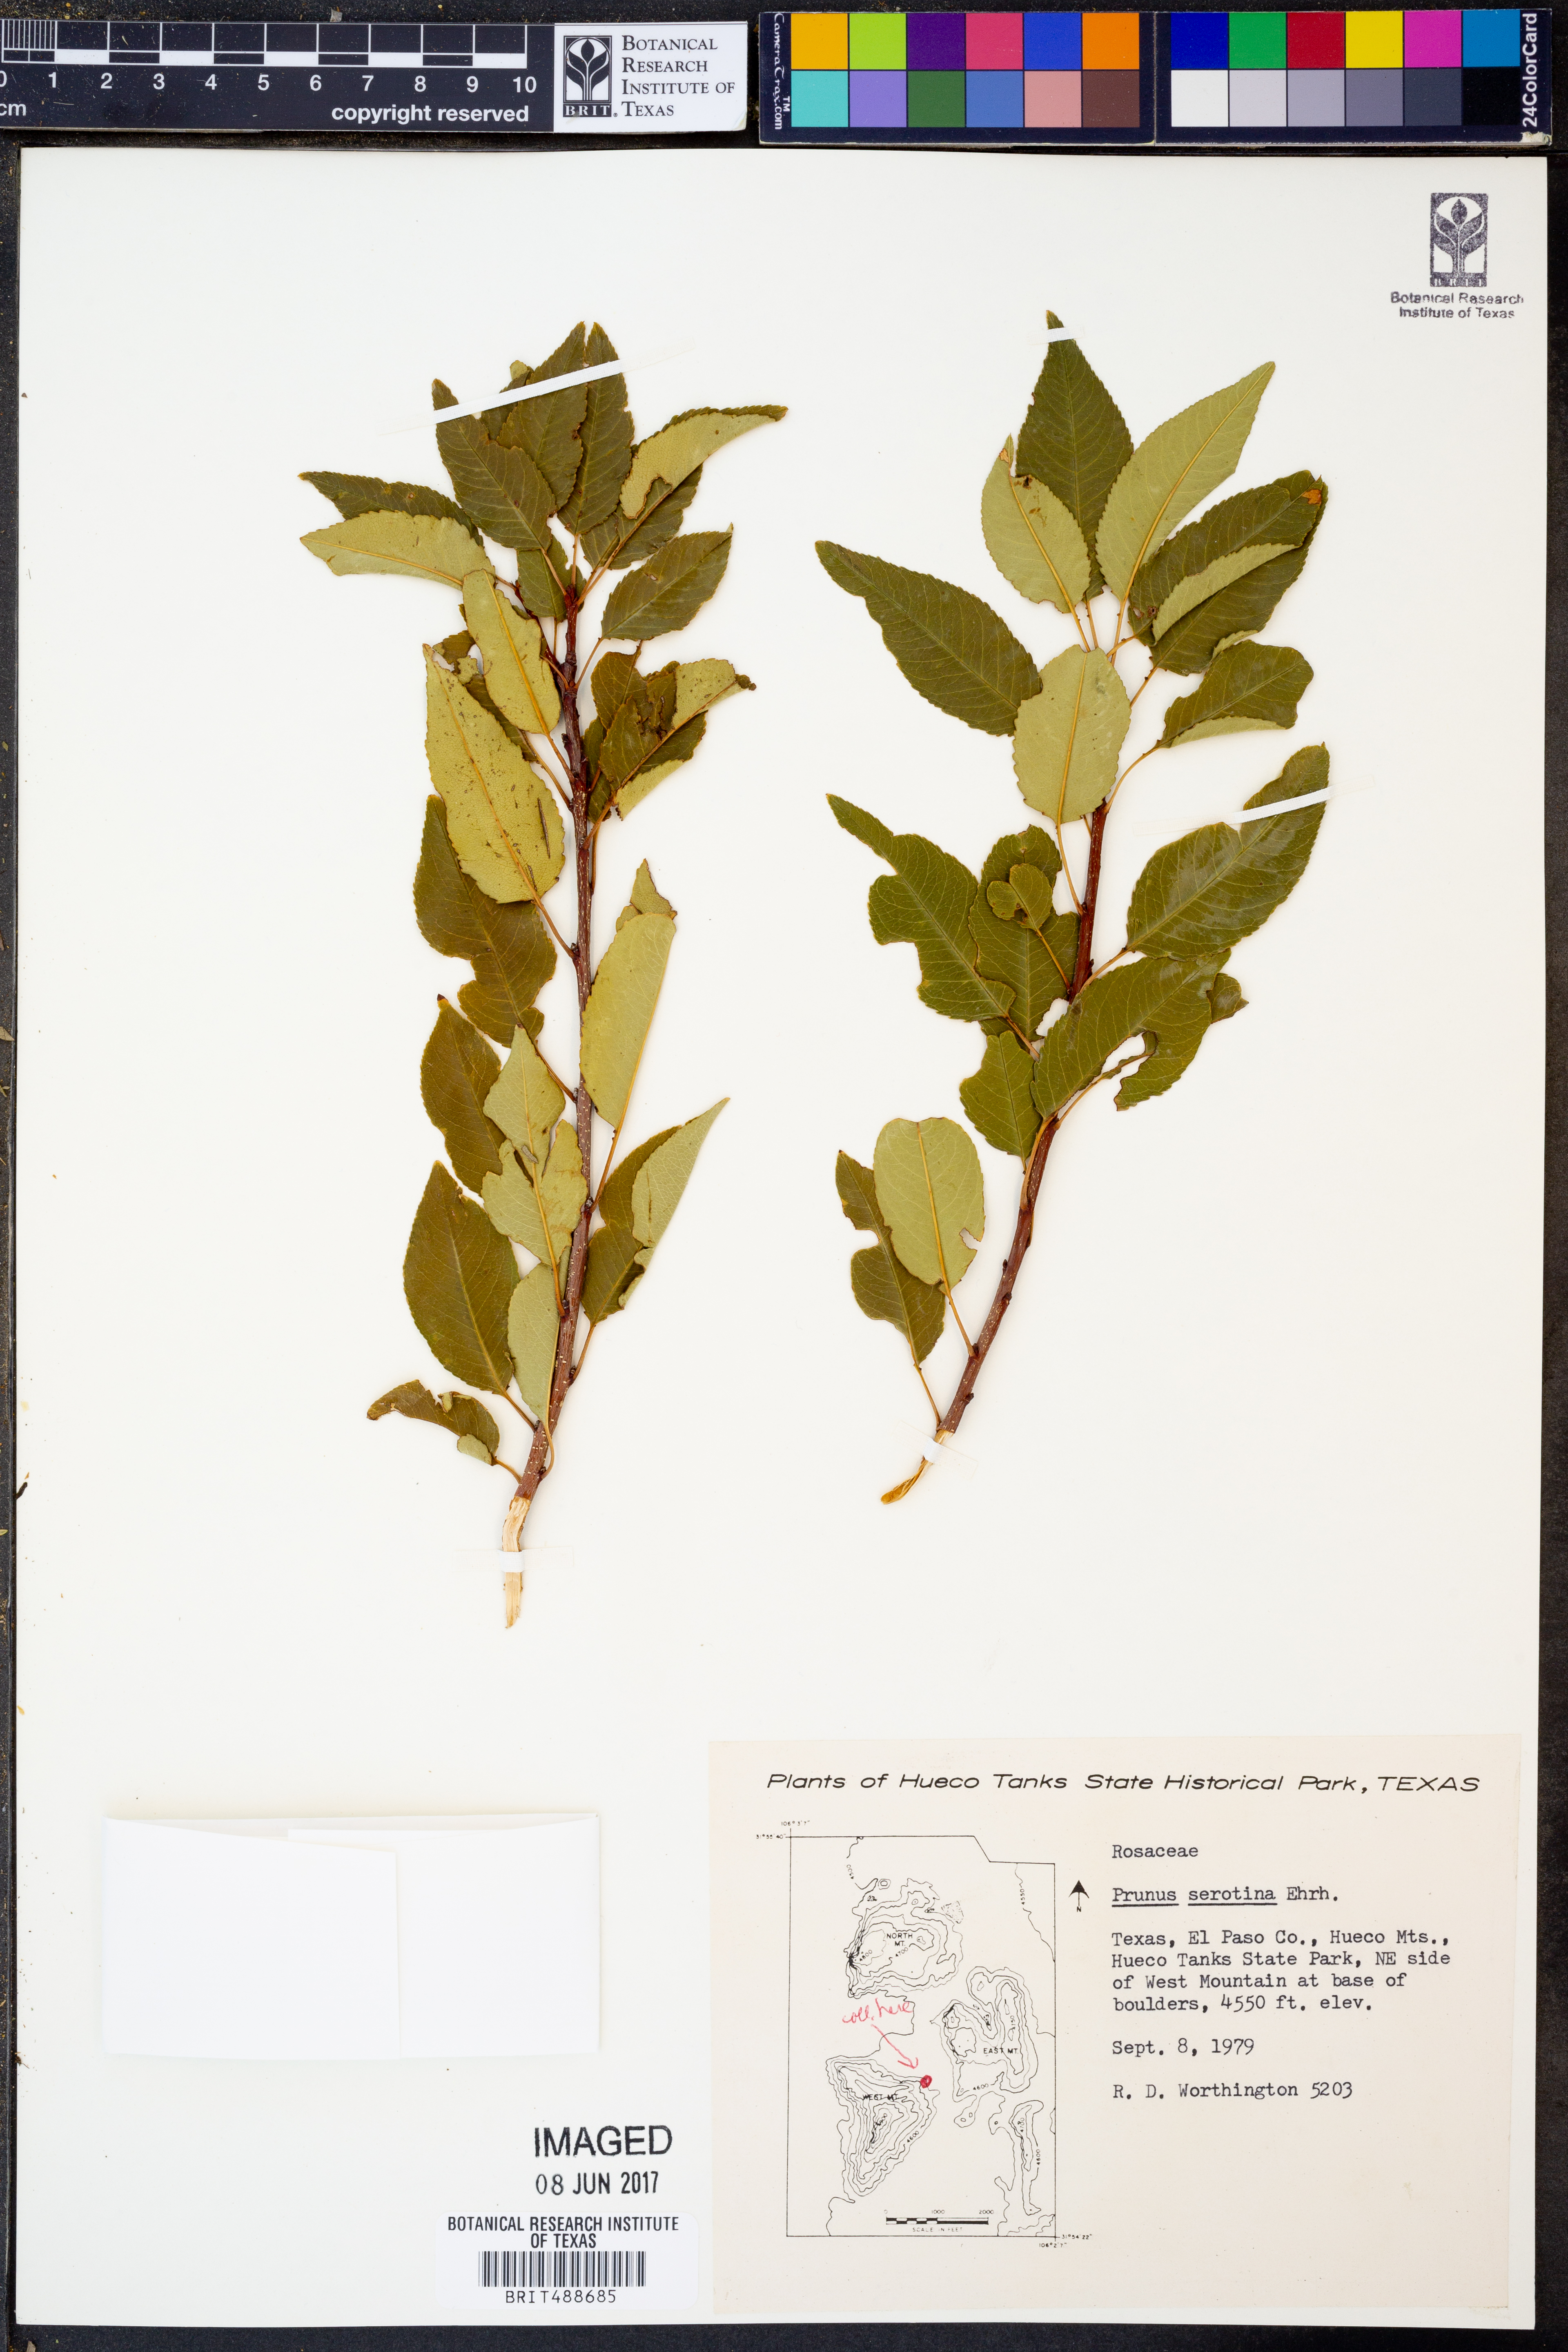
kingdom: Plantae
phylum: Tracheophyta
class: Magnoliopsida
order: Rosales
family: Rosaceae
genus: Prunus
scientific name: Prunus serotina
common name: Black cherry
